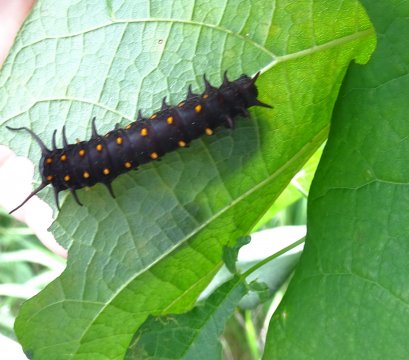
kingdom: Animalia
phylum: Arthropoda
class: Insecta
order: Lepidoptera
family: Papilionidae
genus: Battus
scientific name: Battus philenor
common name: Pipevine Swallowtail
